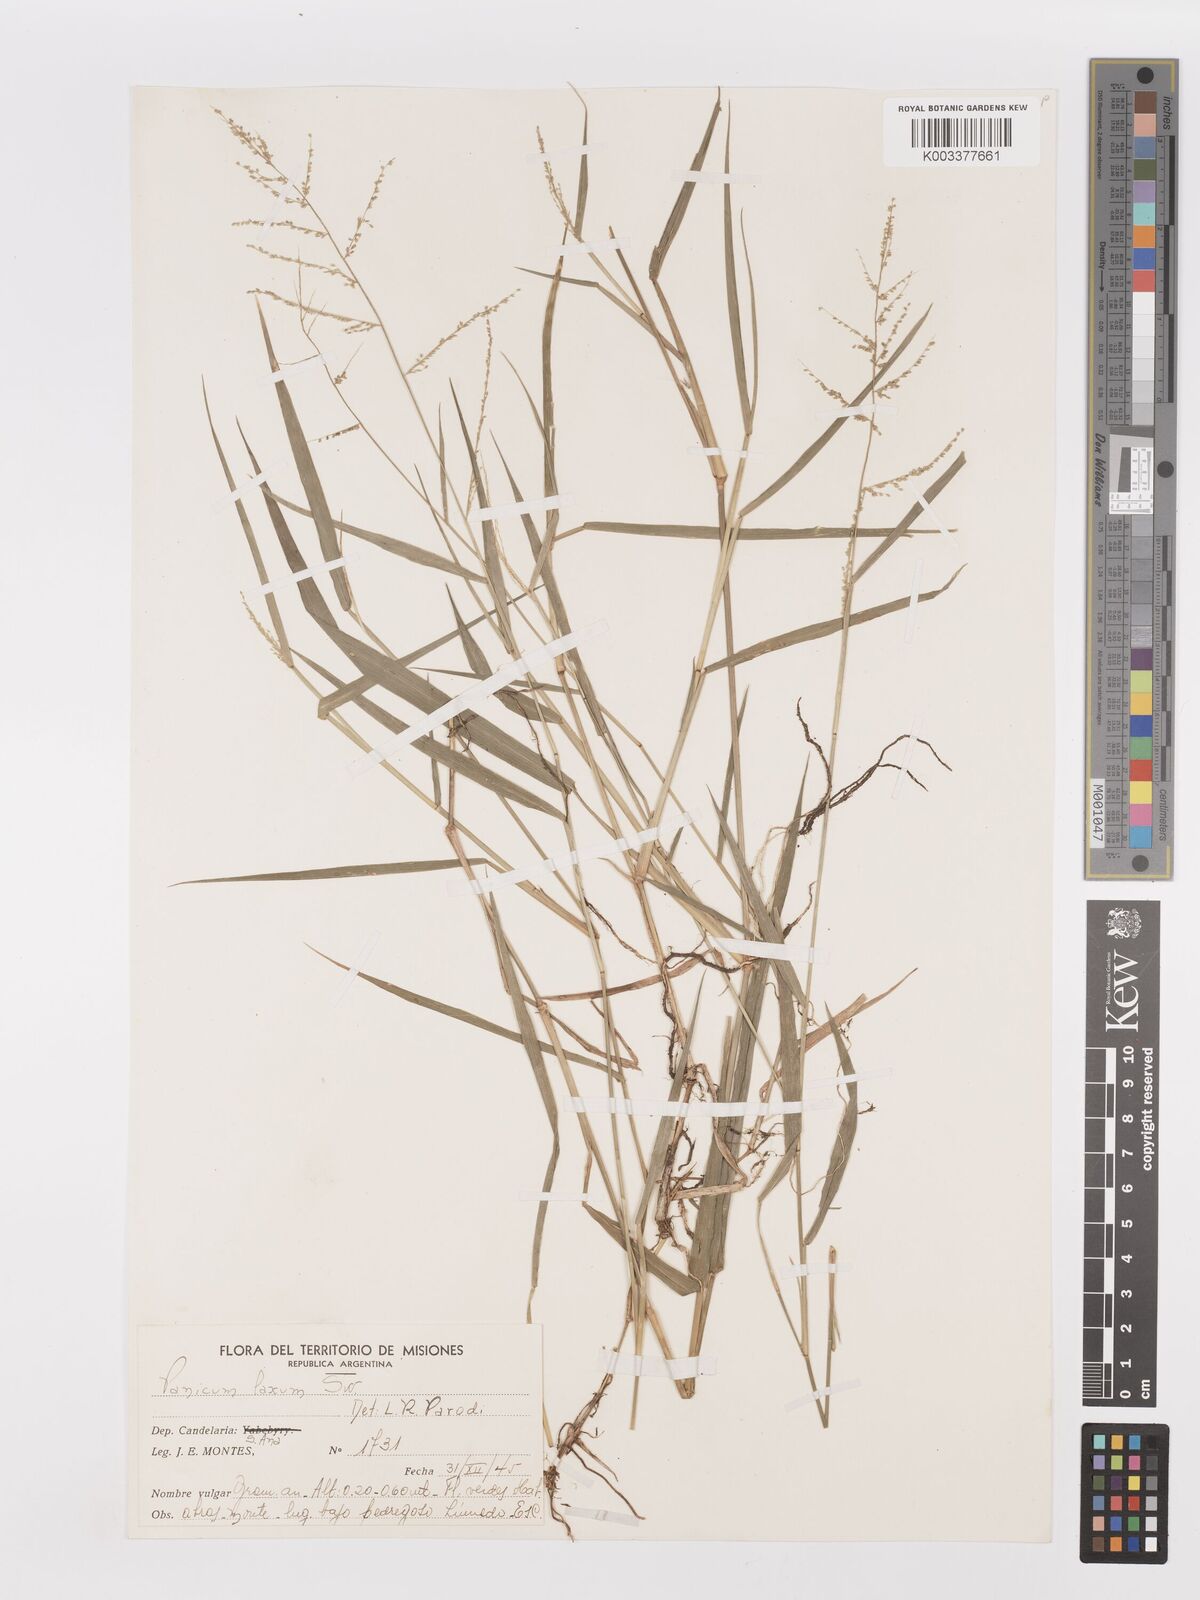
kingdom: Plantae
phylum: Tracheophyta
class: Liliopsida
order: Poales
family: Poaceae
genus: Steinchisma
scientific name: Steinchisma laxum
